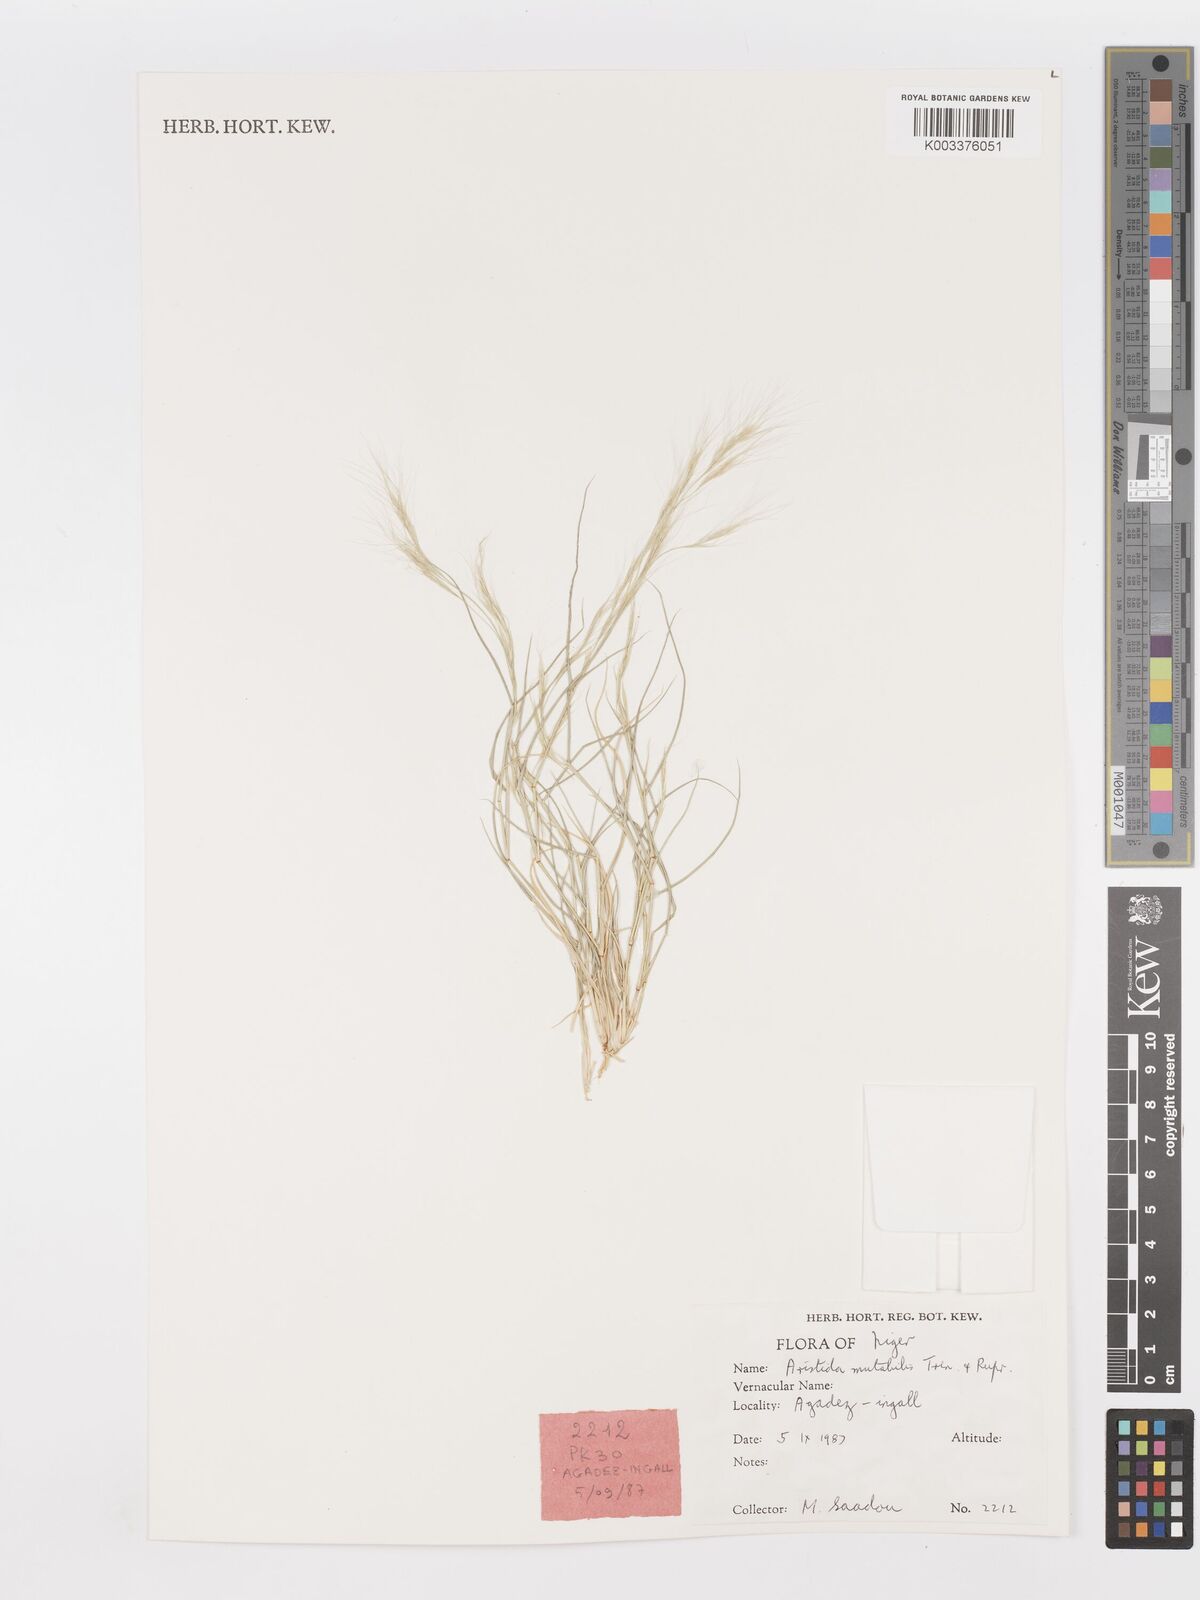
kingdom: Plantae
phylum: Tracheophyta
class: Liliopsida
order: Poales
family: Poaceae
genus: Aristida
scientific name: Aristida mutabilis
